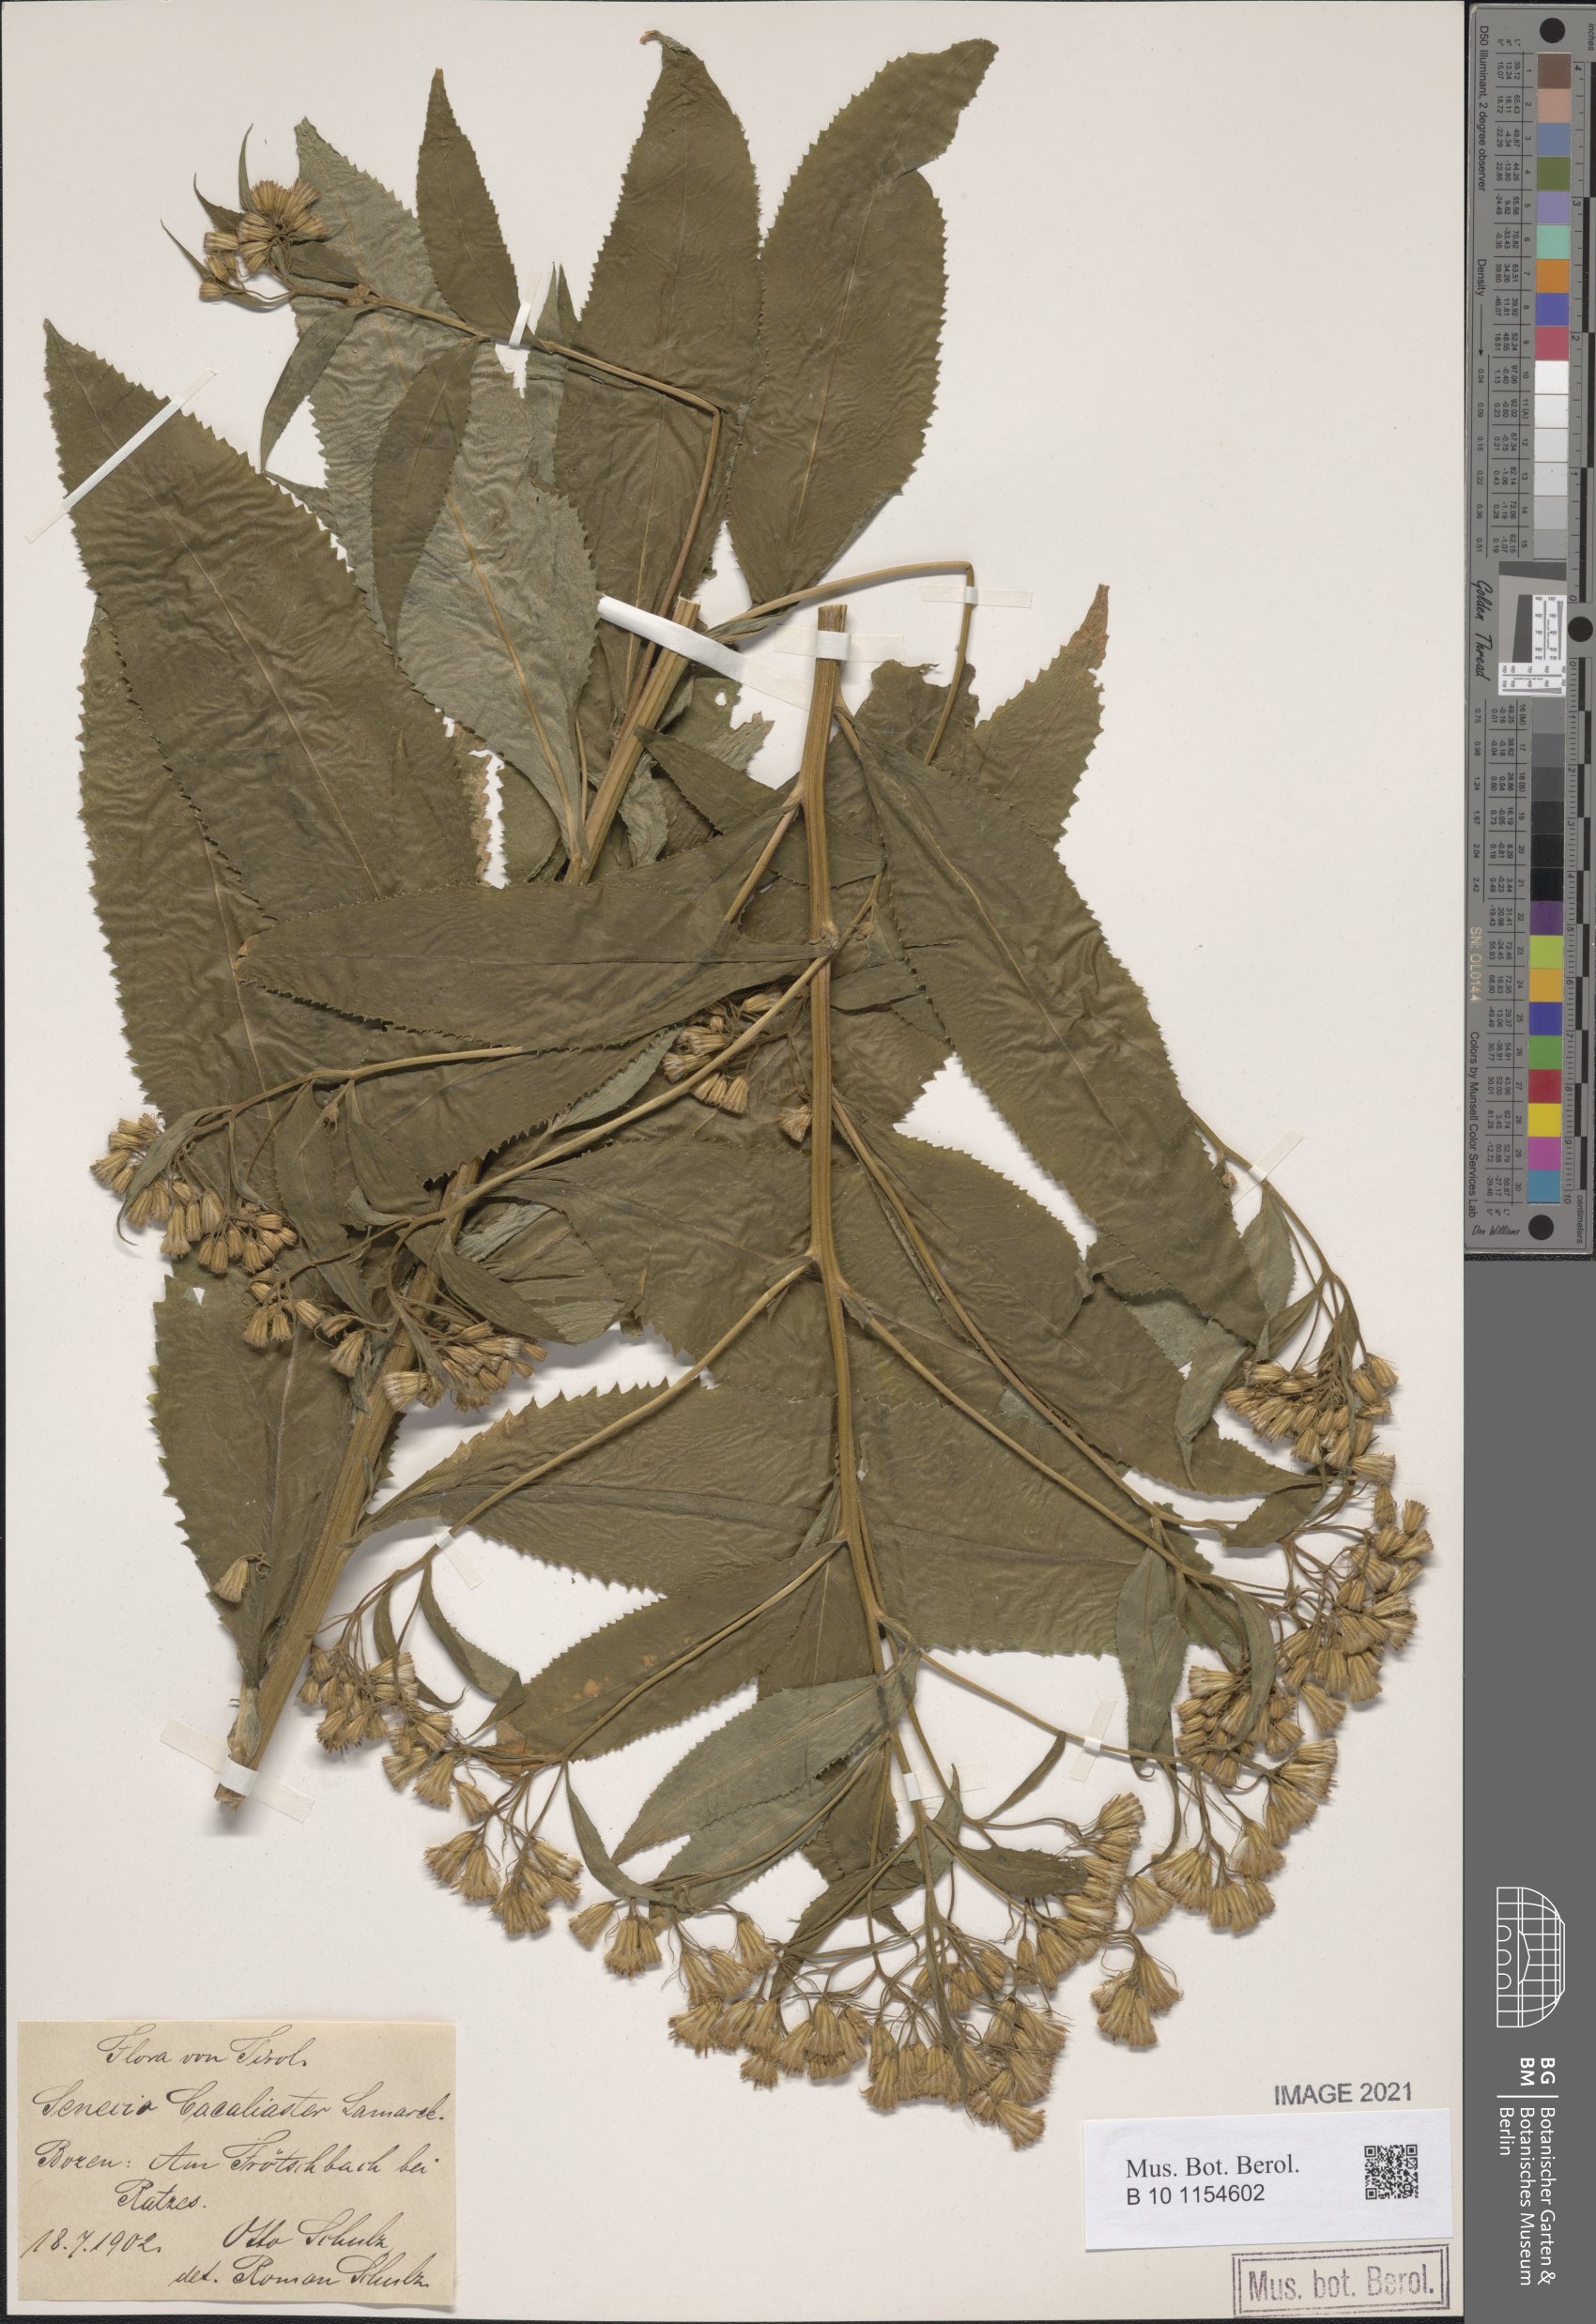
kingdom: Plantae
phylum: Tracheophyta
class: Magnoliopsida
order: Asterales
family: Asteraceae
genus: Senecio
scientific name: Senecio cacaliaster
